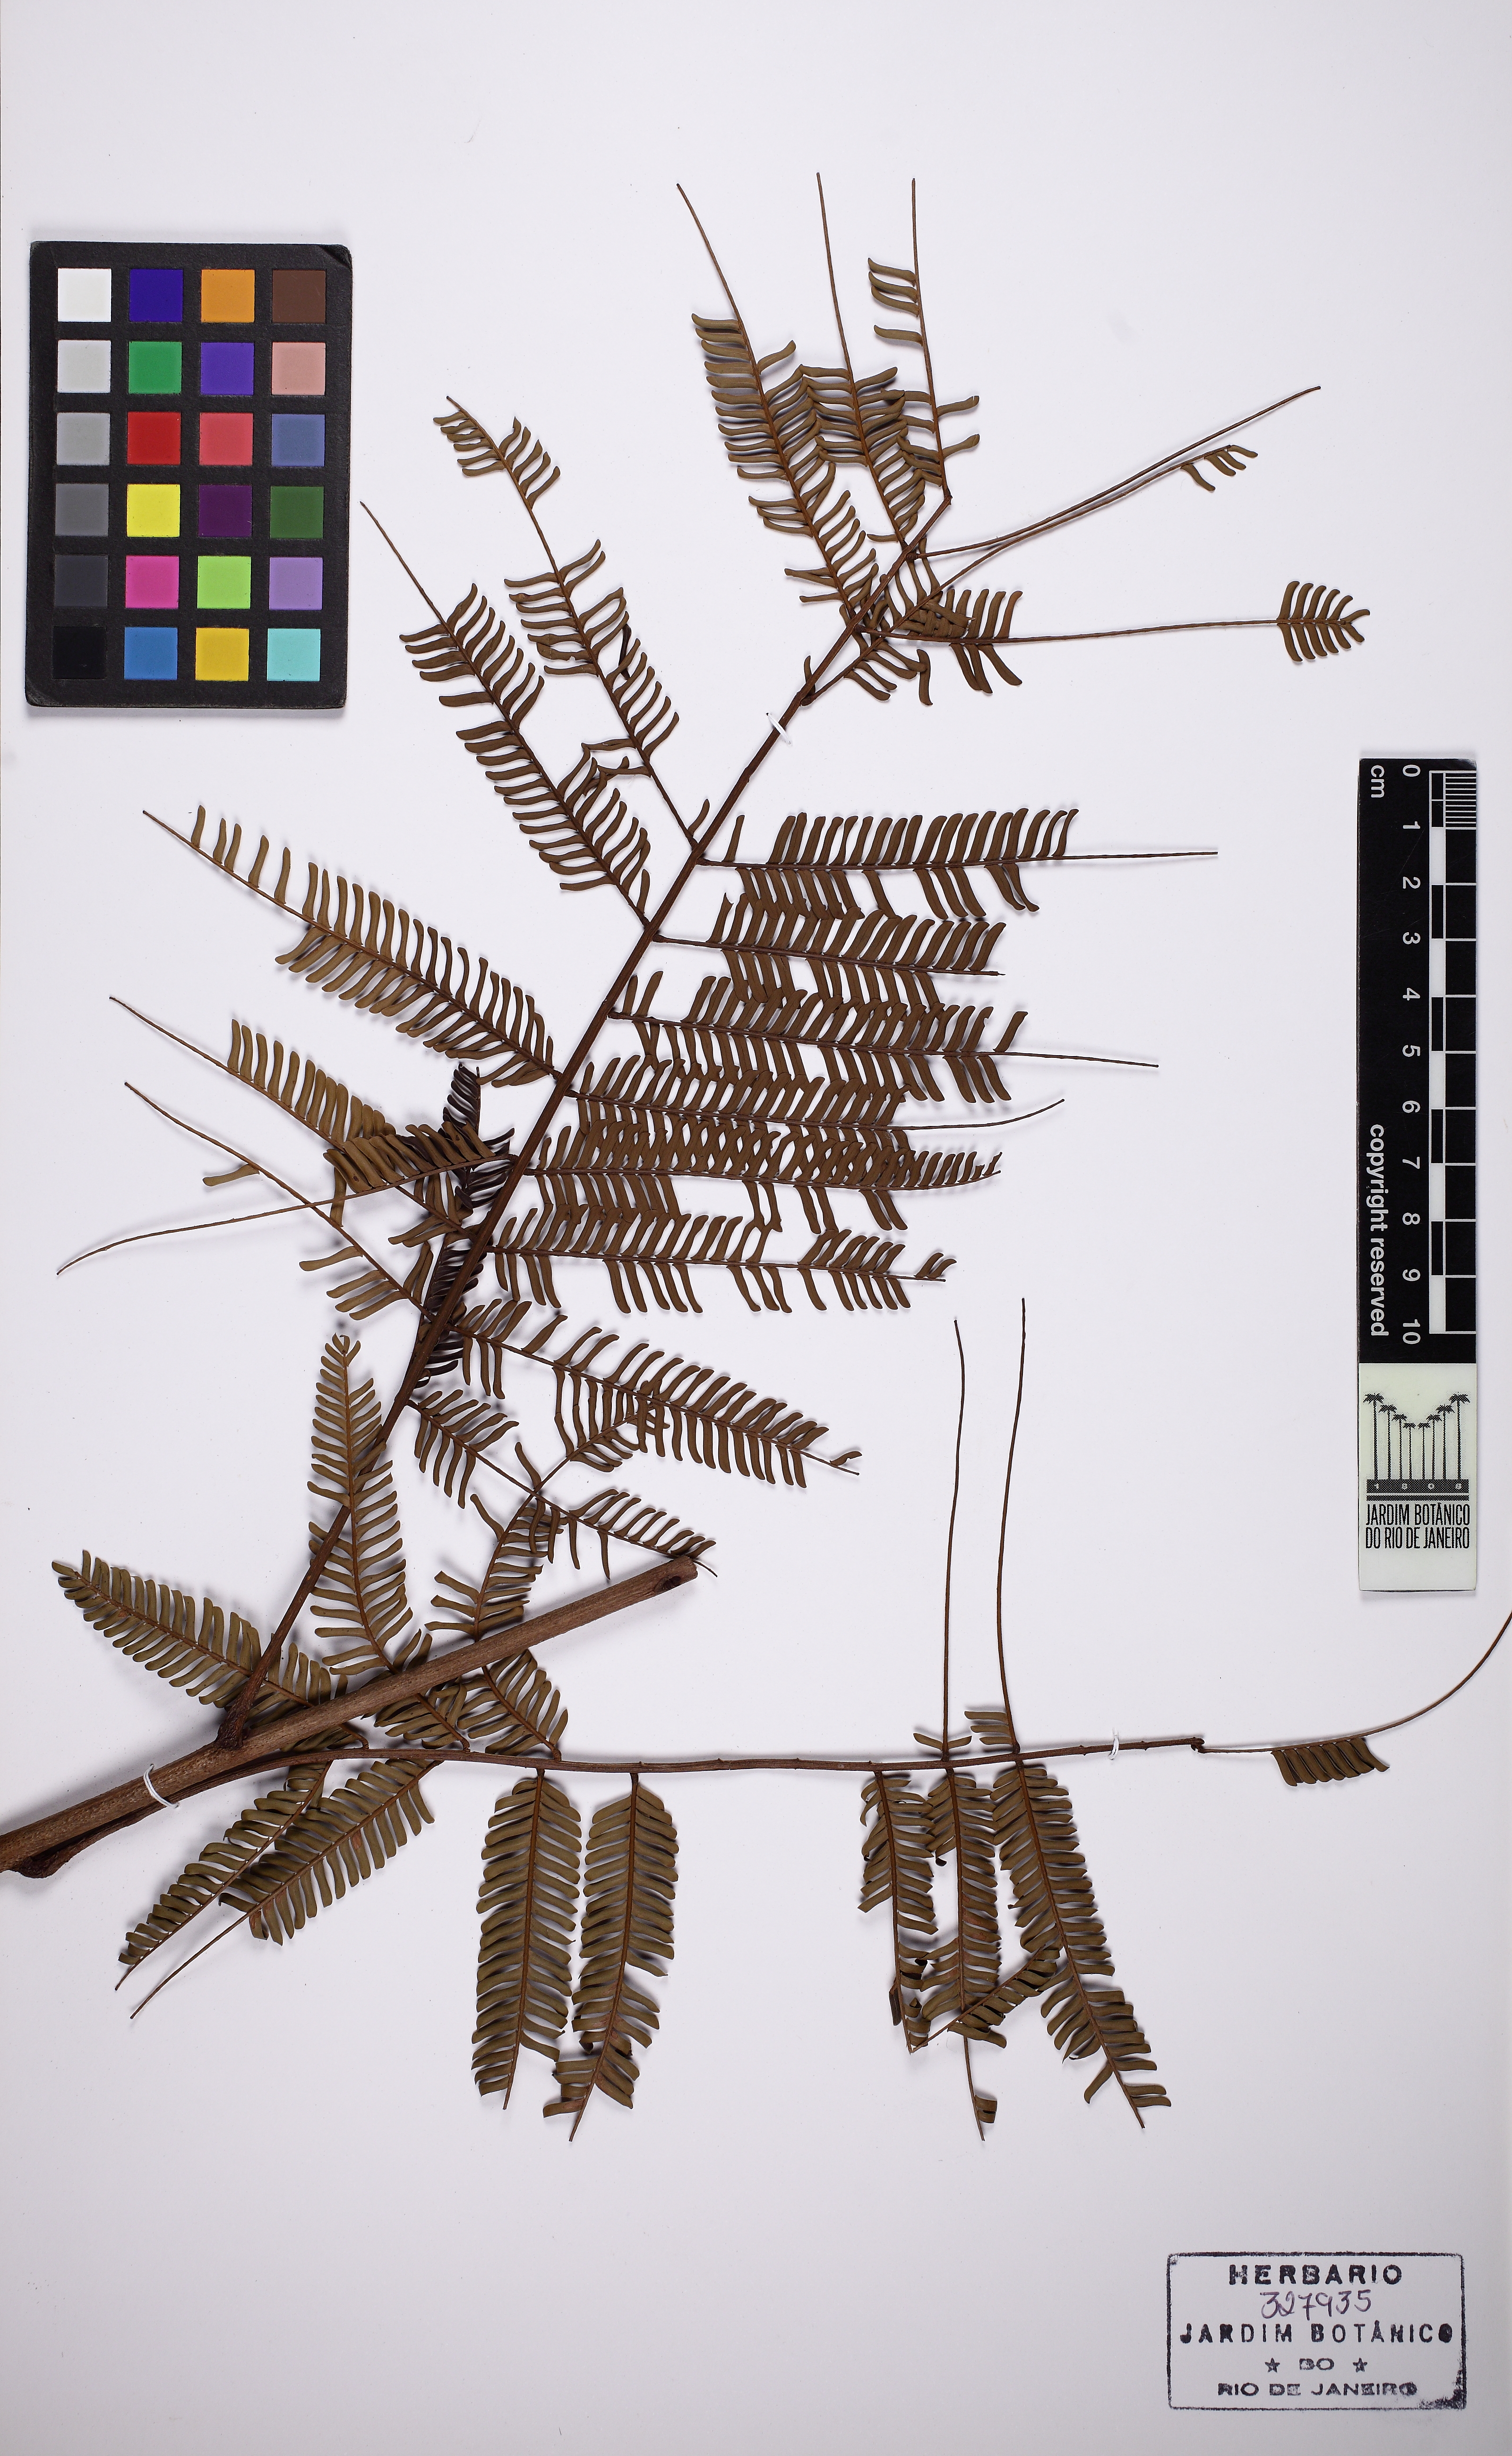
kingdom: Plantae
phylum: Tracheophyta
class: Magnoliopsida
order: Fabales
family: Fabaceae
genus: Parkia
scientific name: Parkia nitida
